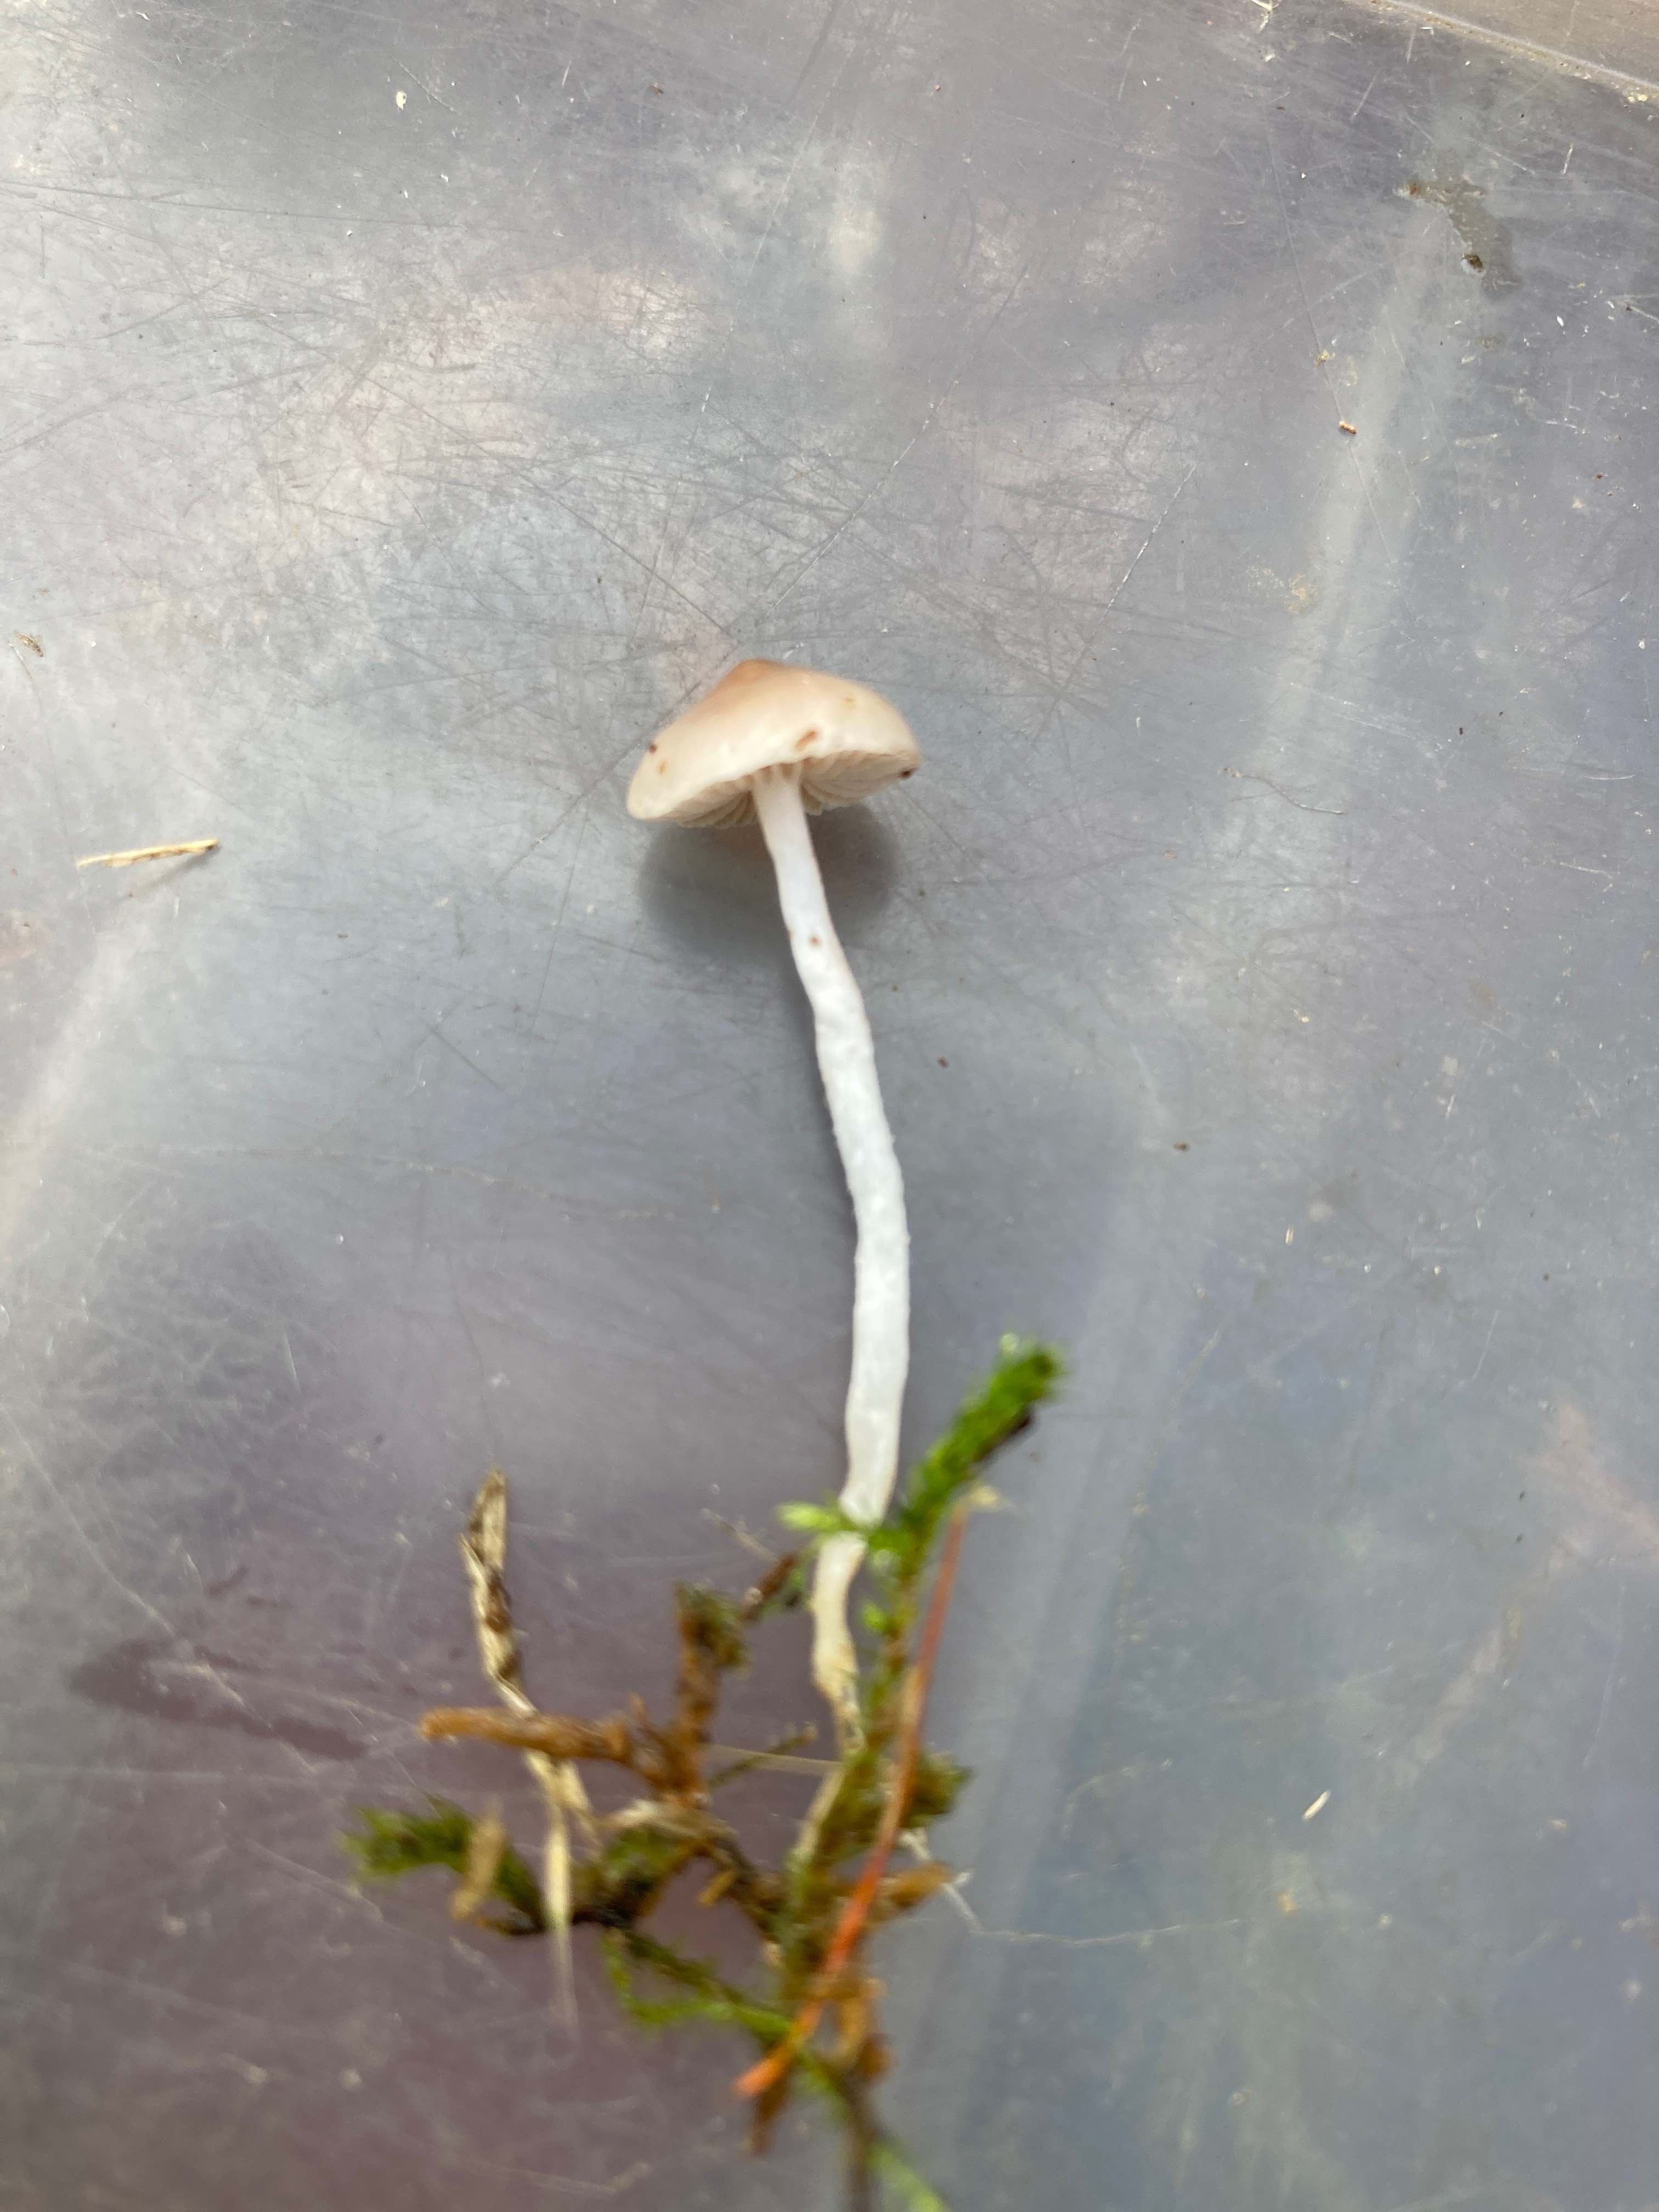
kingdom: Fungi
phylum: Basidiomycota
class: Agaricomycetes
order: Agaricales
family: Strophariaceae
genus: Stropharia
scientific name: Stropharia inuncta
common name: lillabrun bredblad
